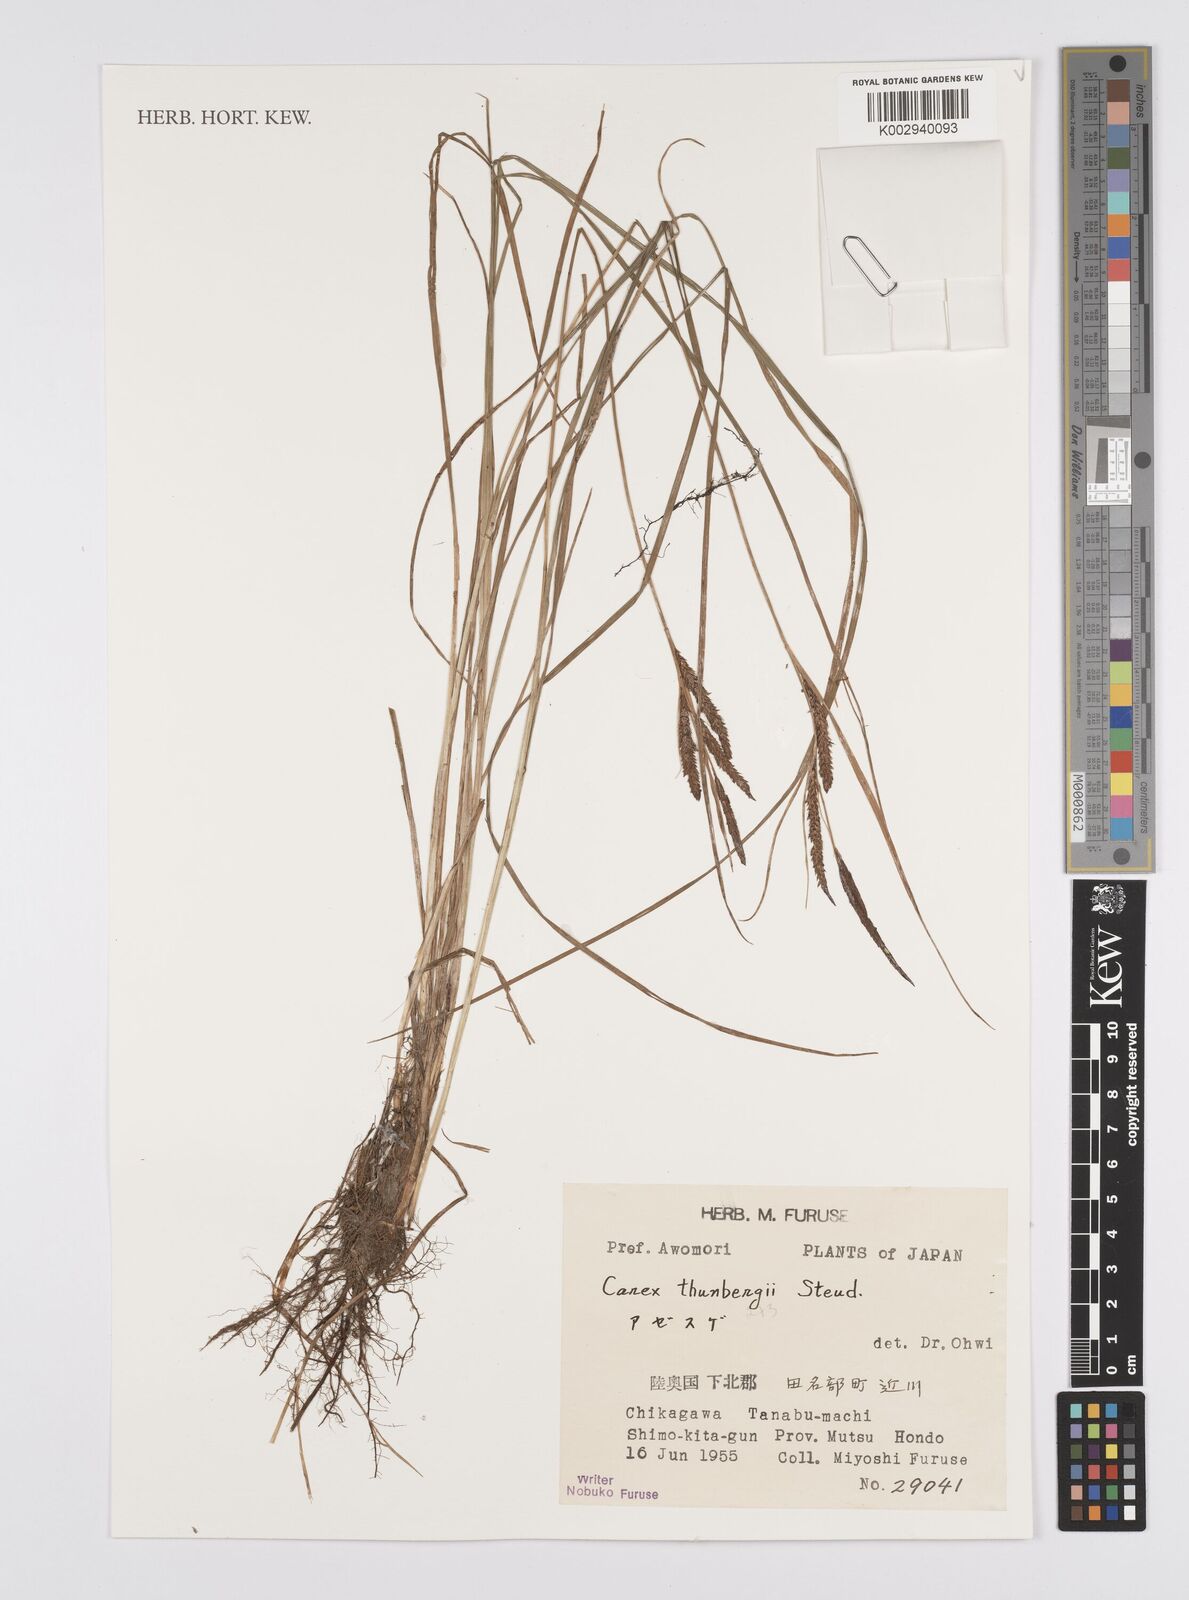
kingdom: Plantae
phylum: Tracheophyta
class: Liliopsida
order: Poales
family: Cyperaceae
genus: Carex
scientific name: Carex gaudichaudiana
